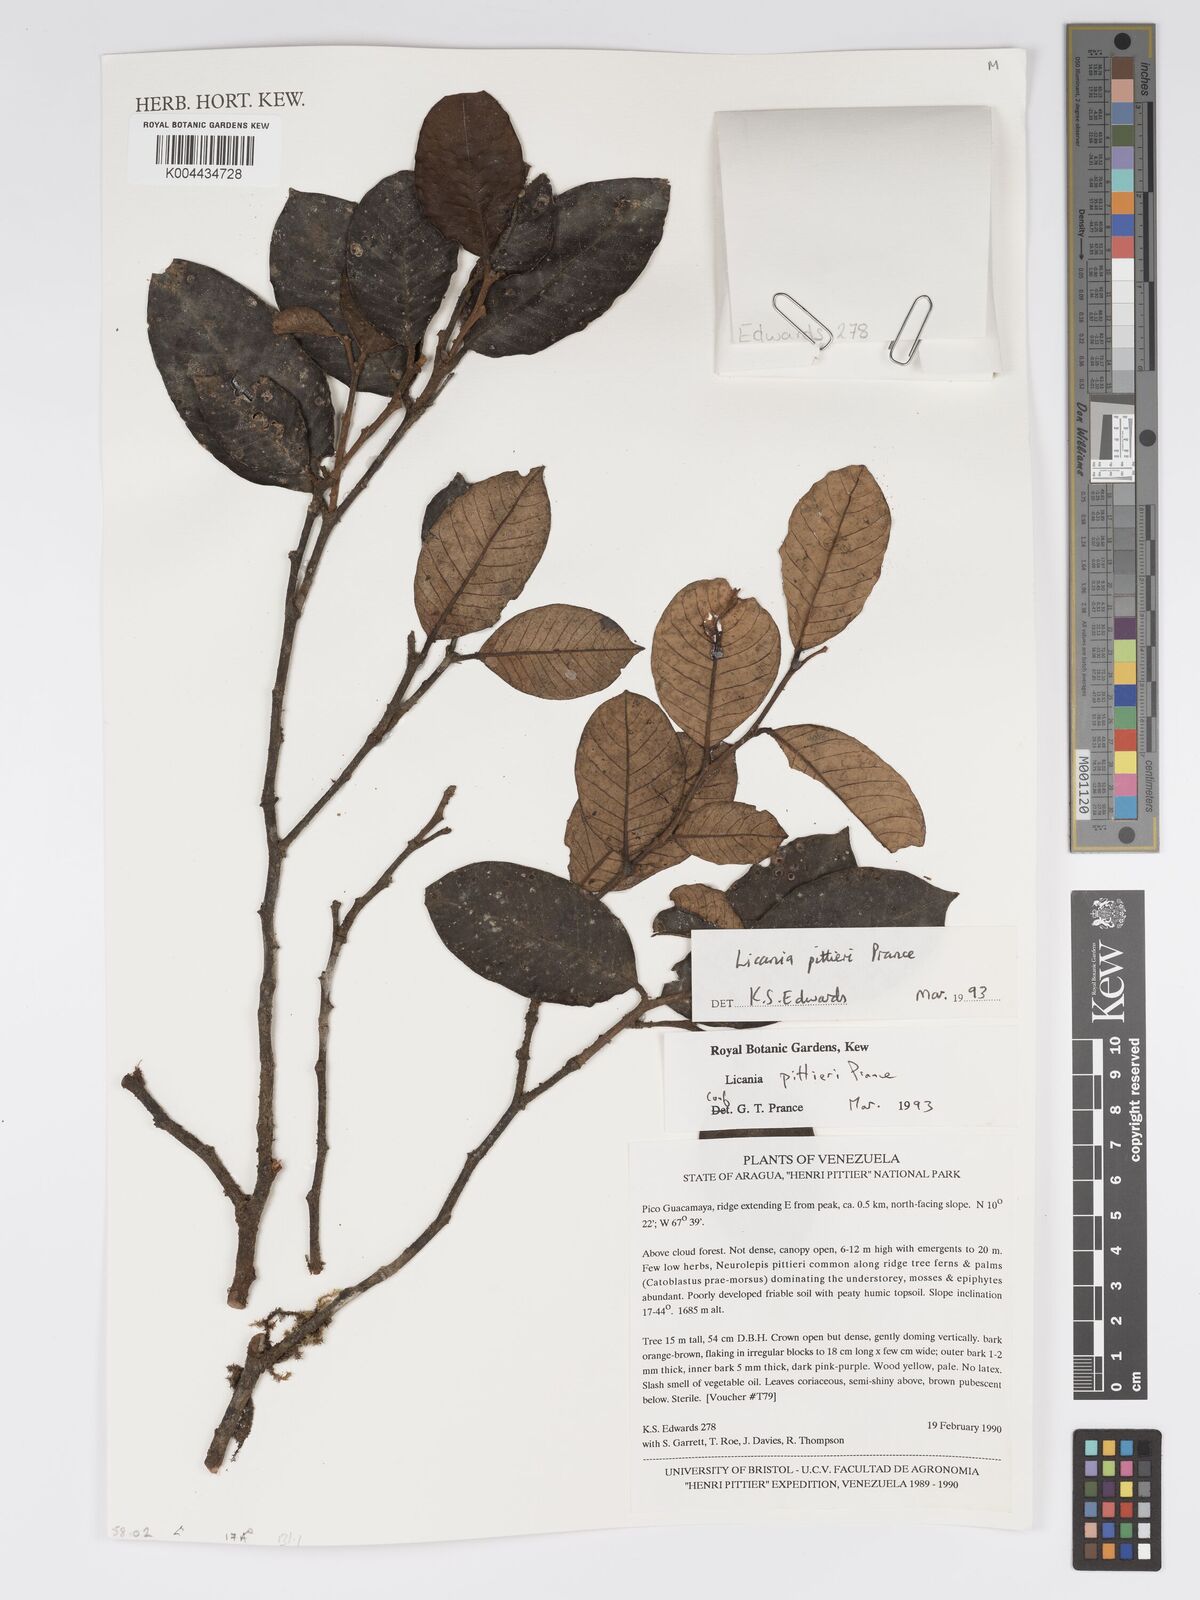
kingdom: Plantae
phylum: Tracheophyta
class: Magnoliopsida
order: Malpighiales
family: Chrysobalanaceae
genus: Licania
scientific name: Licania pittieri
